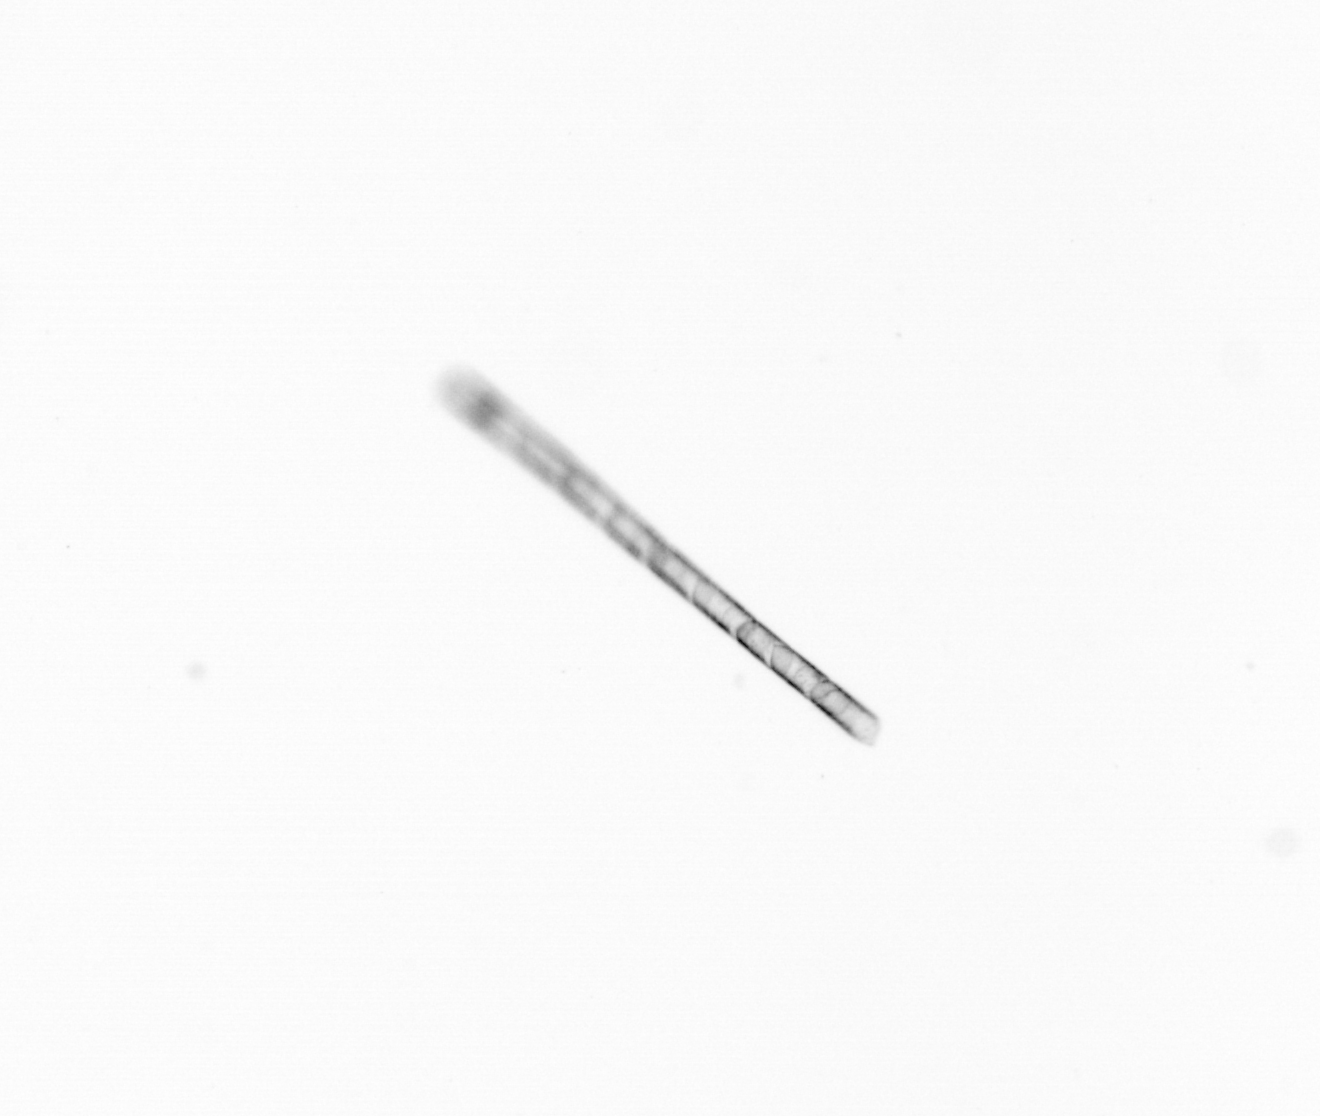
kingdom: Chromista
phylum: Ochrophyta
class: Bacillariophyceae
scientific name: Bacillariophyceae
